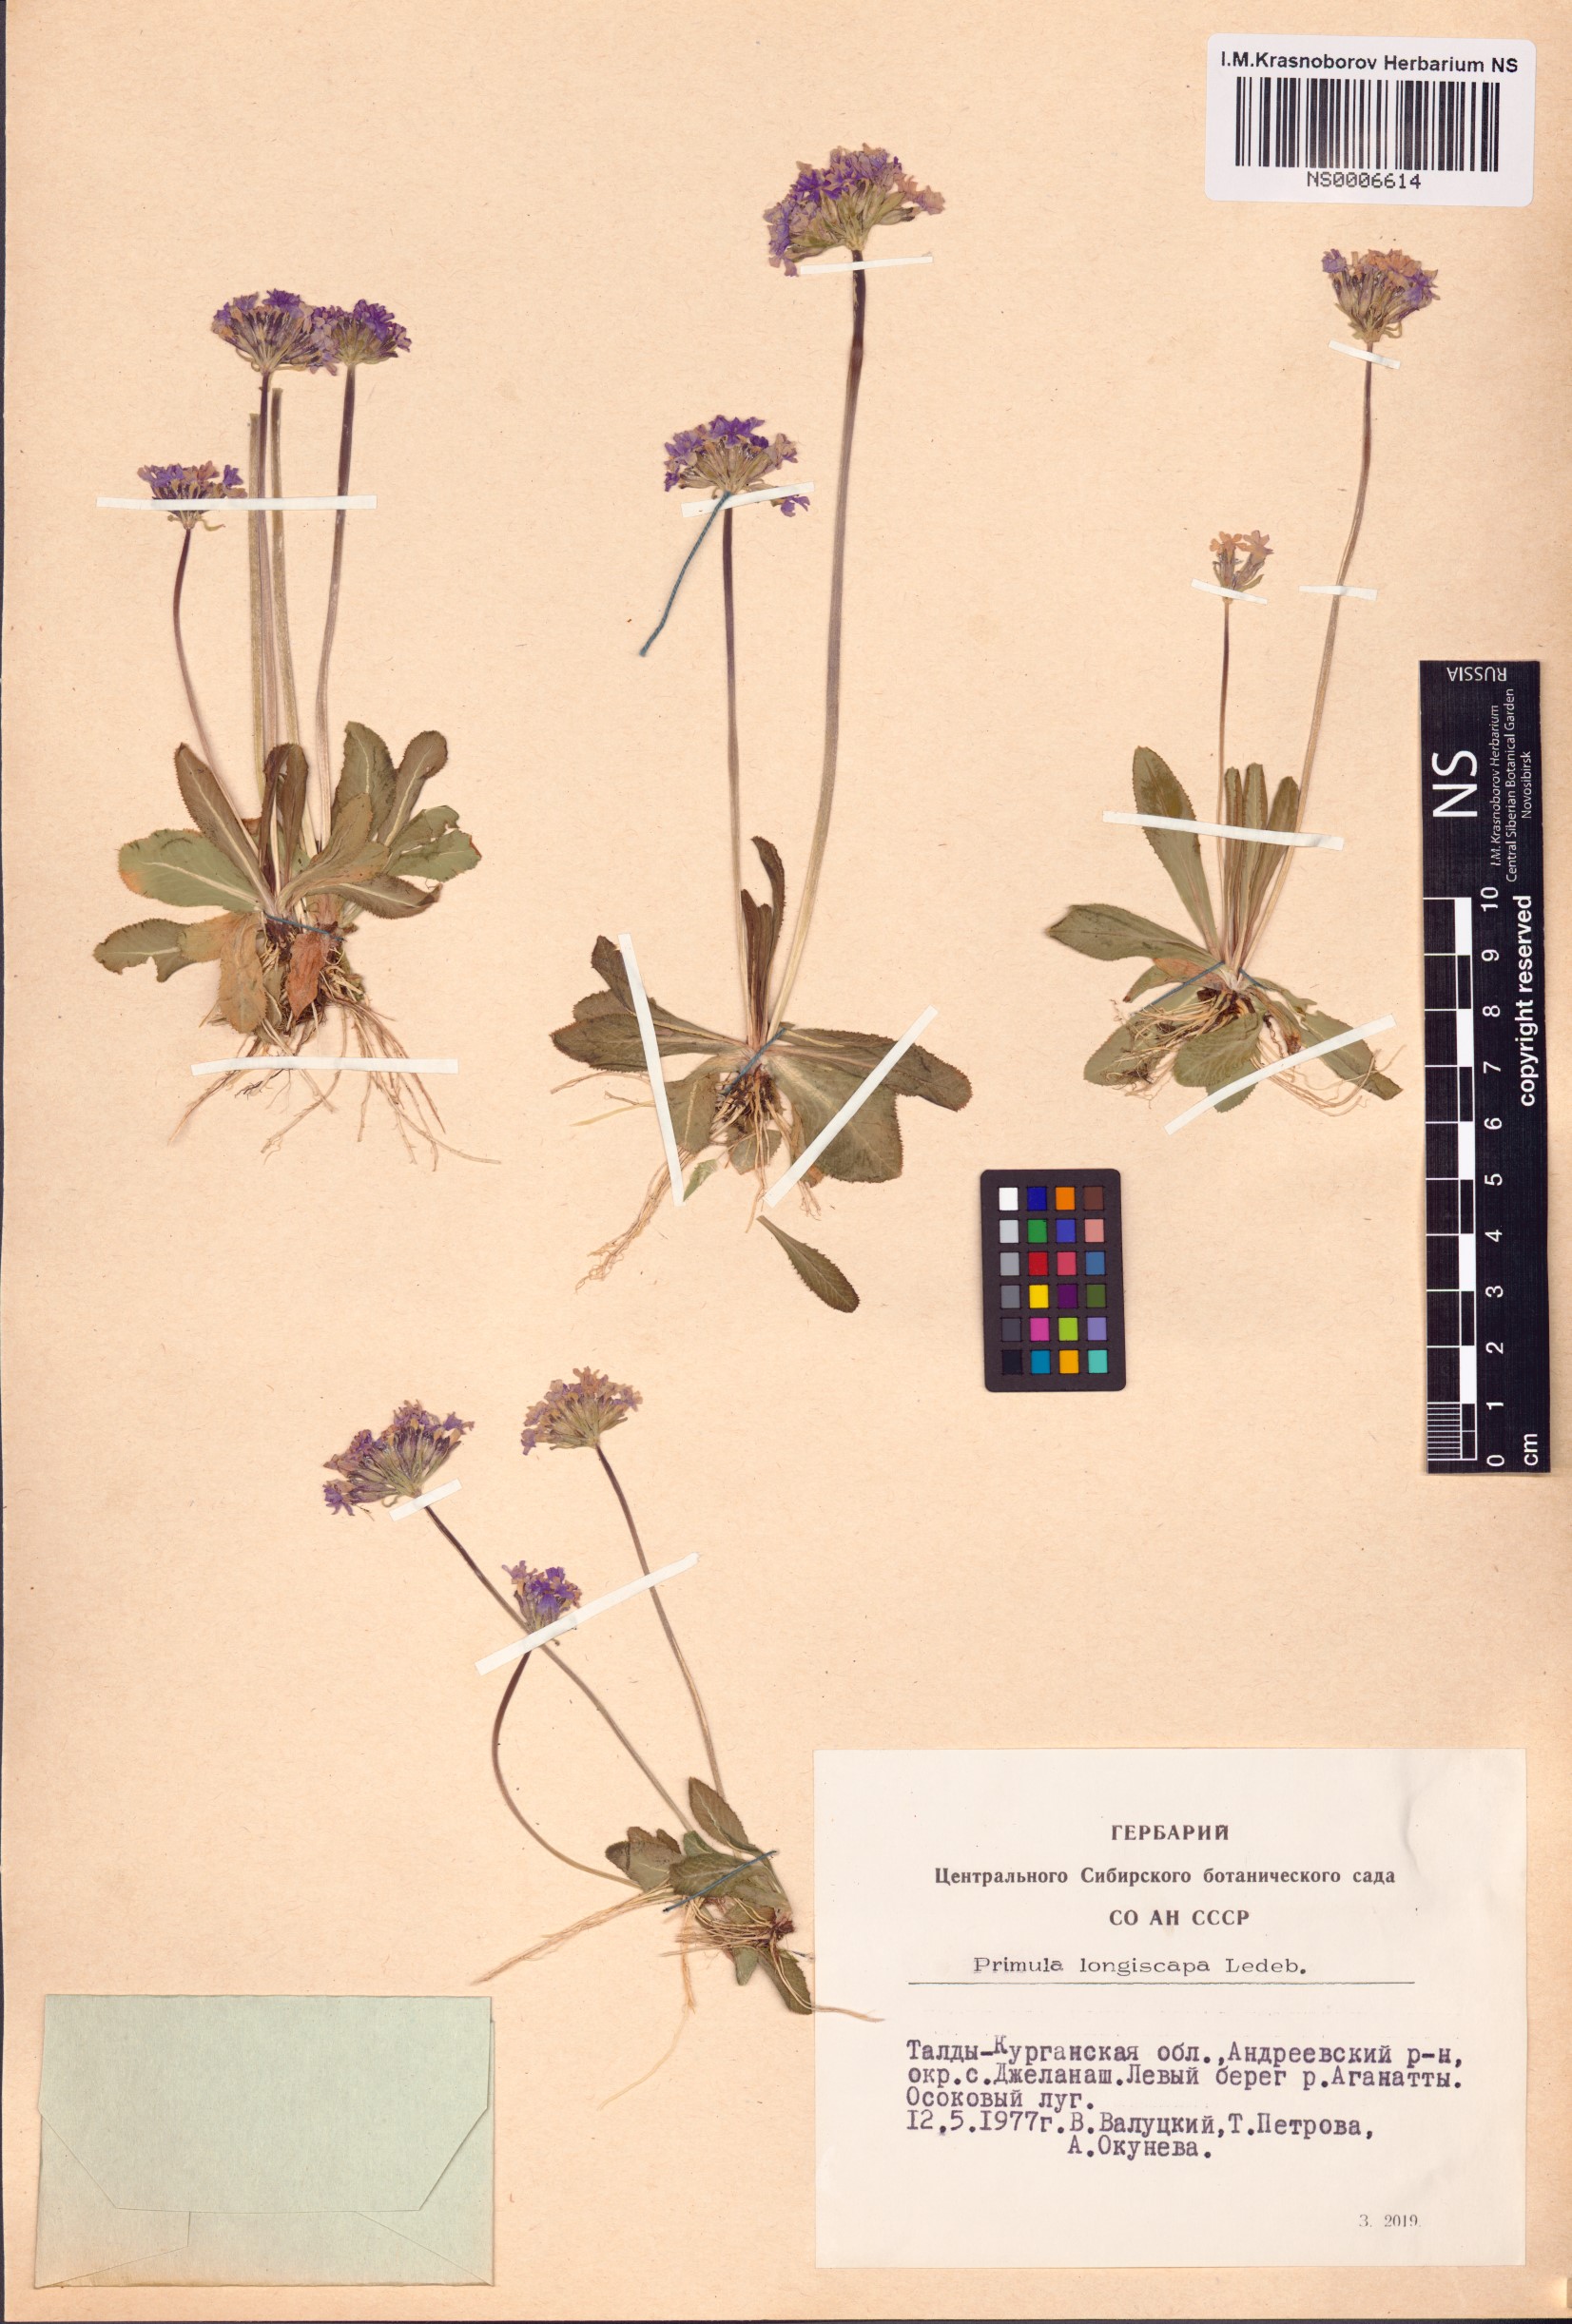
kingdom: Plantae
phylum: Tracheophyta
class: Magnoliopsida
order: Ericales
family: Primulaceae
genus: Primula
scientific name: Primula longiscapa
